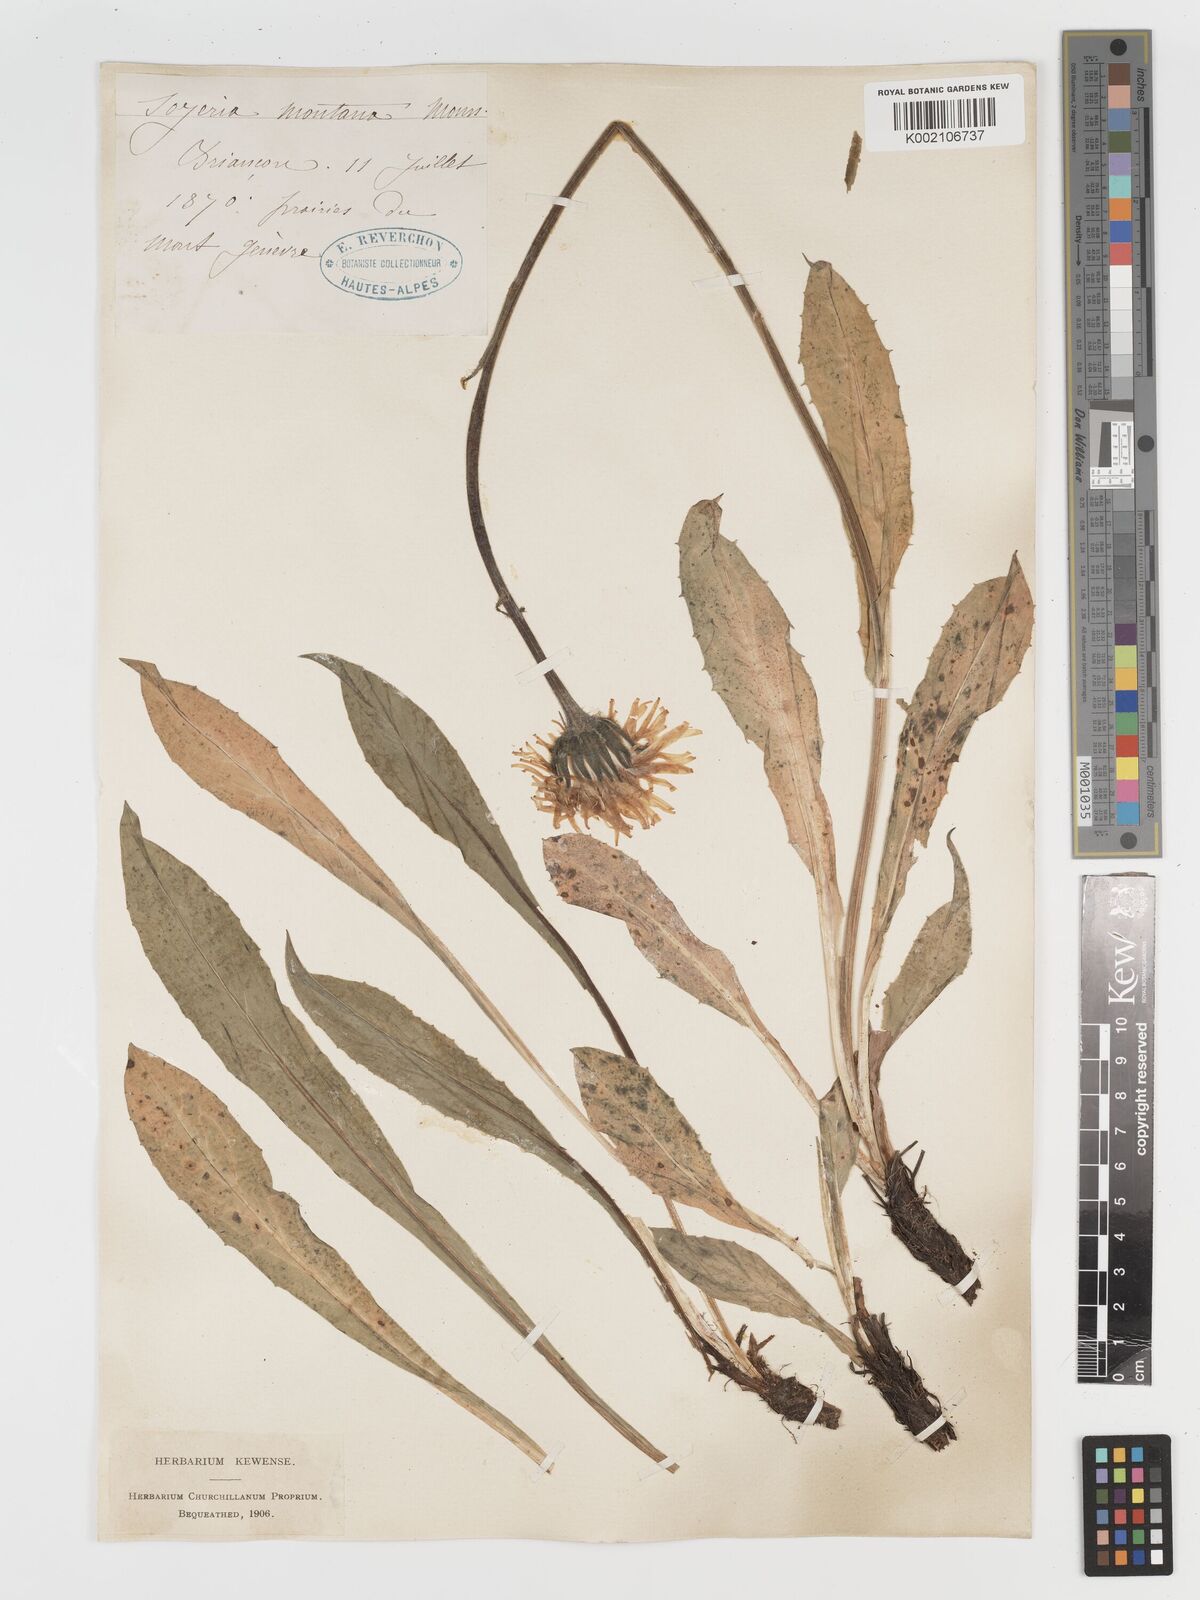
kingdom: Plantae
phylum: Tracheophyta
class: Magnoliopsida
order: Asterales
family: Asteraceae
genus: Crepis
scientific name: Crepis pontana
